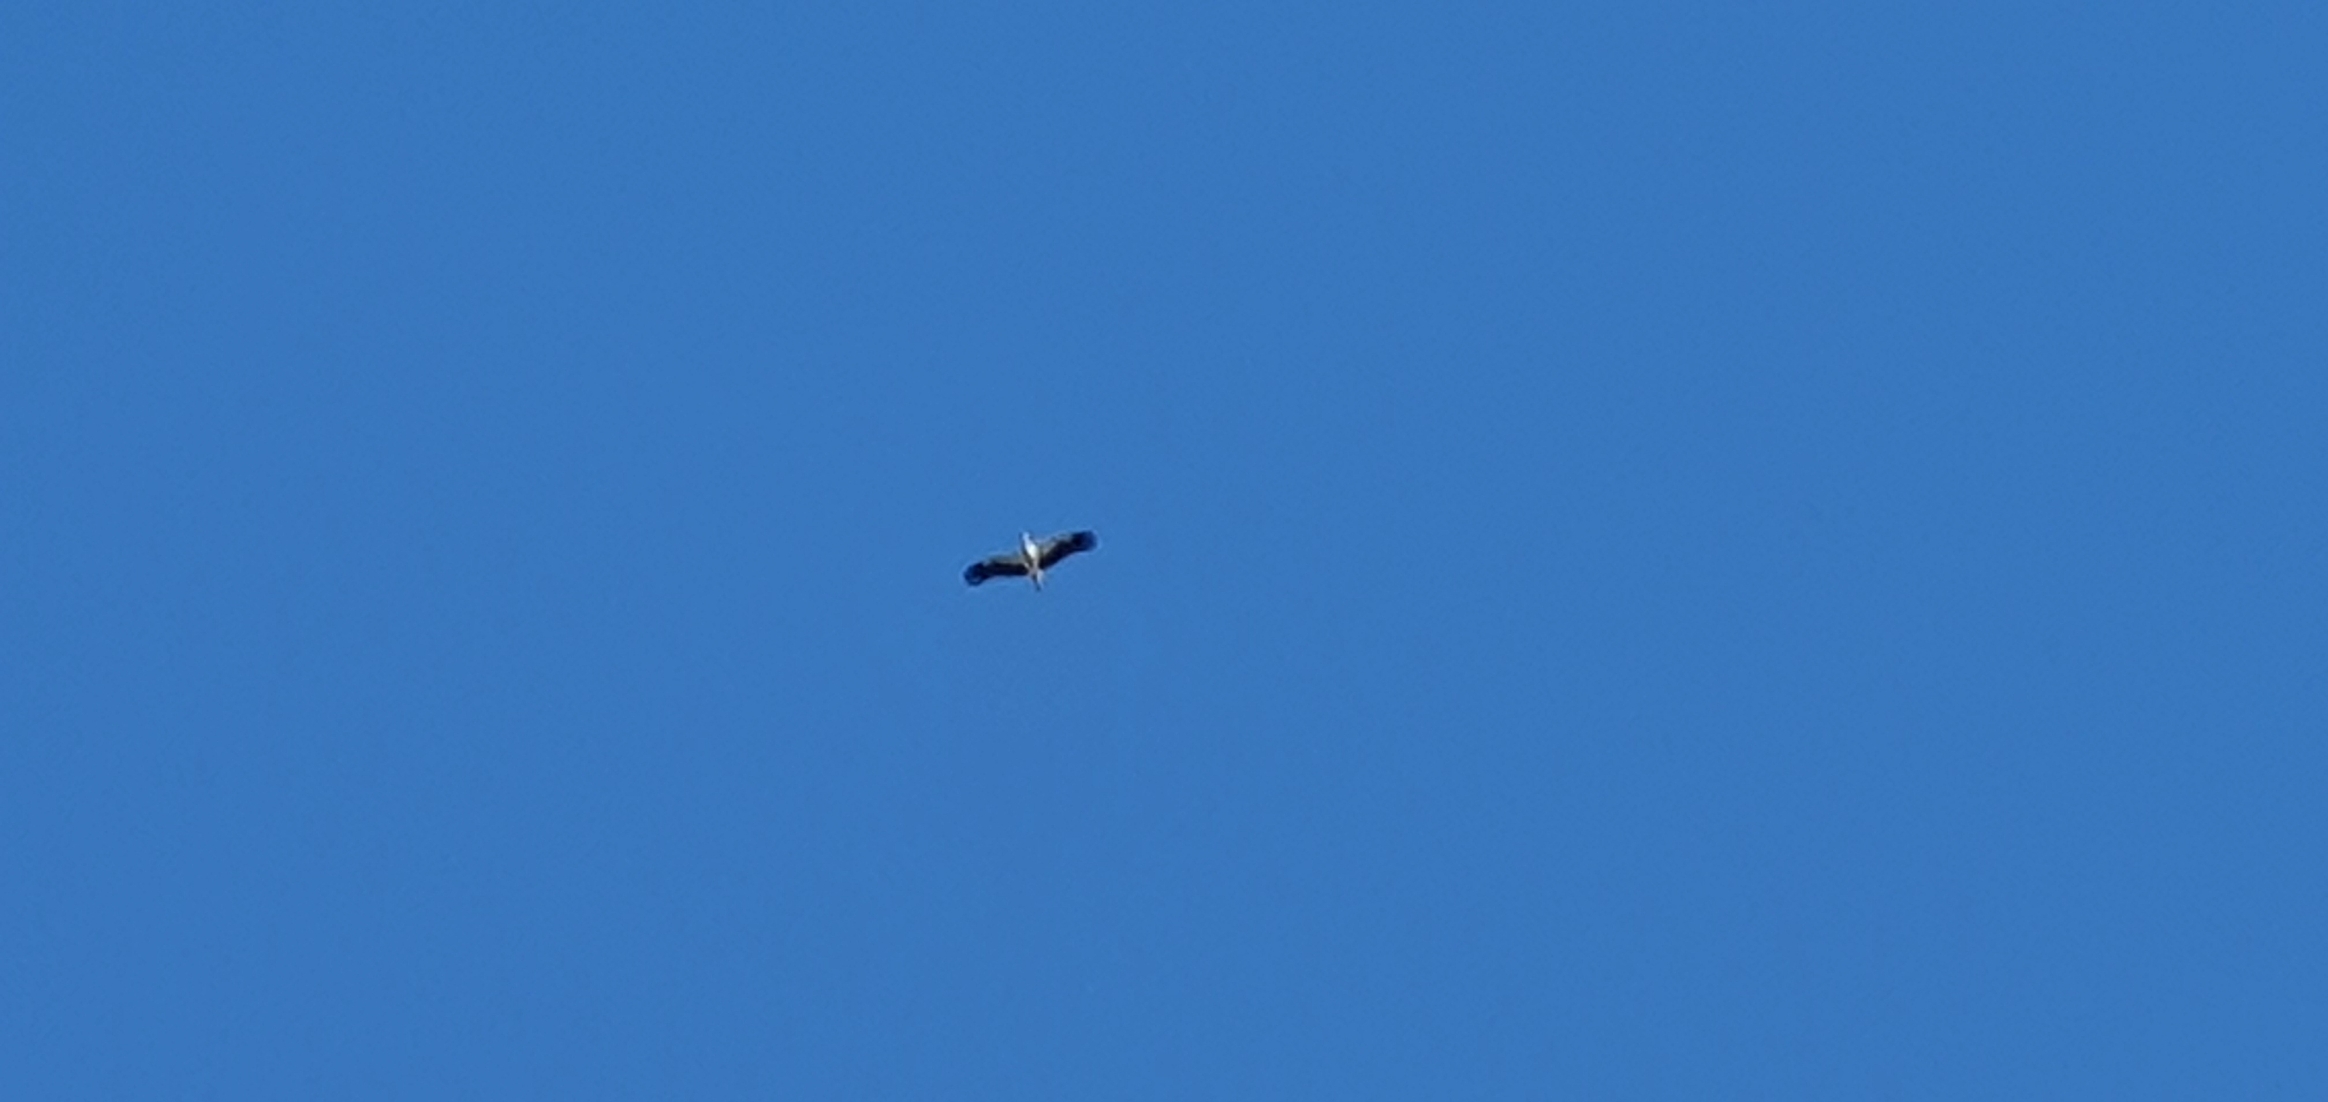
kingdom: Animalia
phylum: Chordata
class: Aves
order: Ciconiiformes
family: Ciconiidae
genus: Ciconia
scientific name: Ciconia ciconia
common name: Hvid stork
